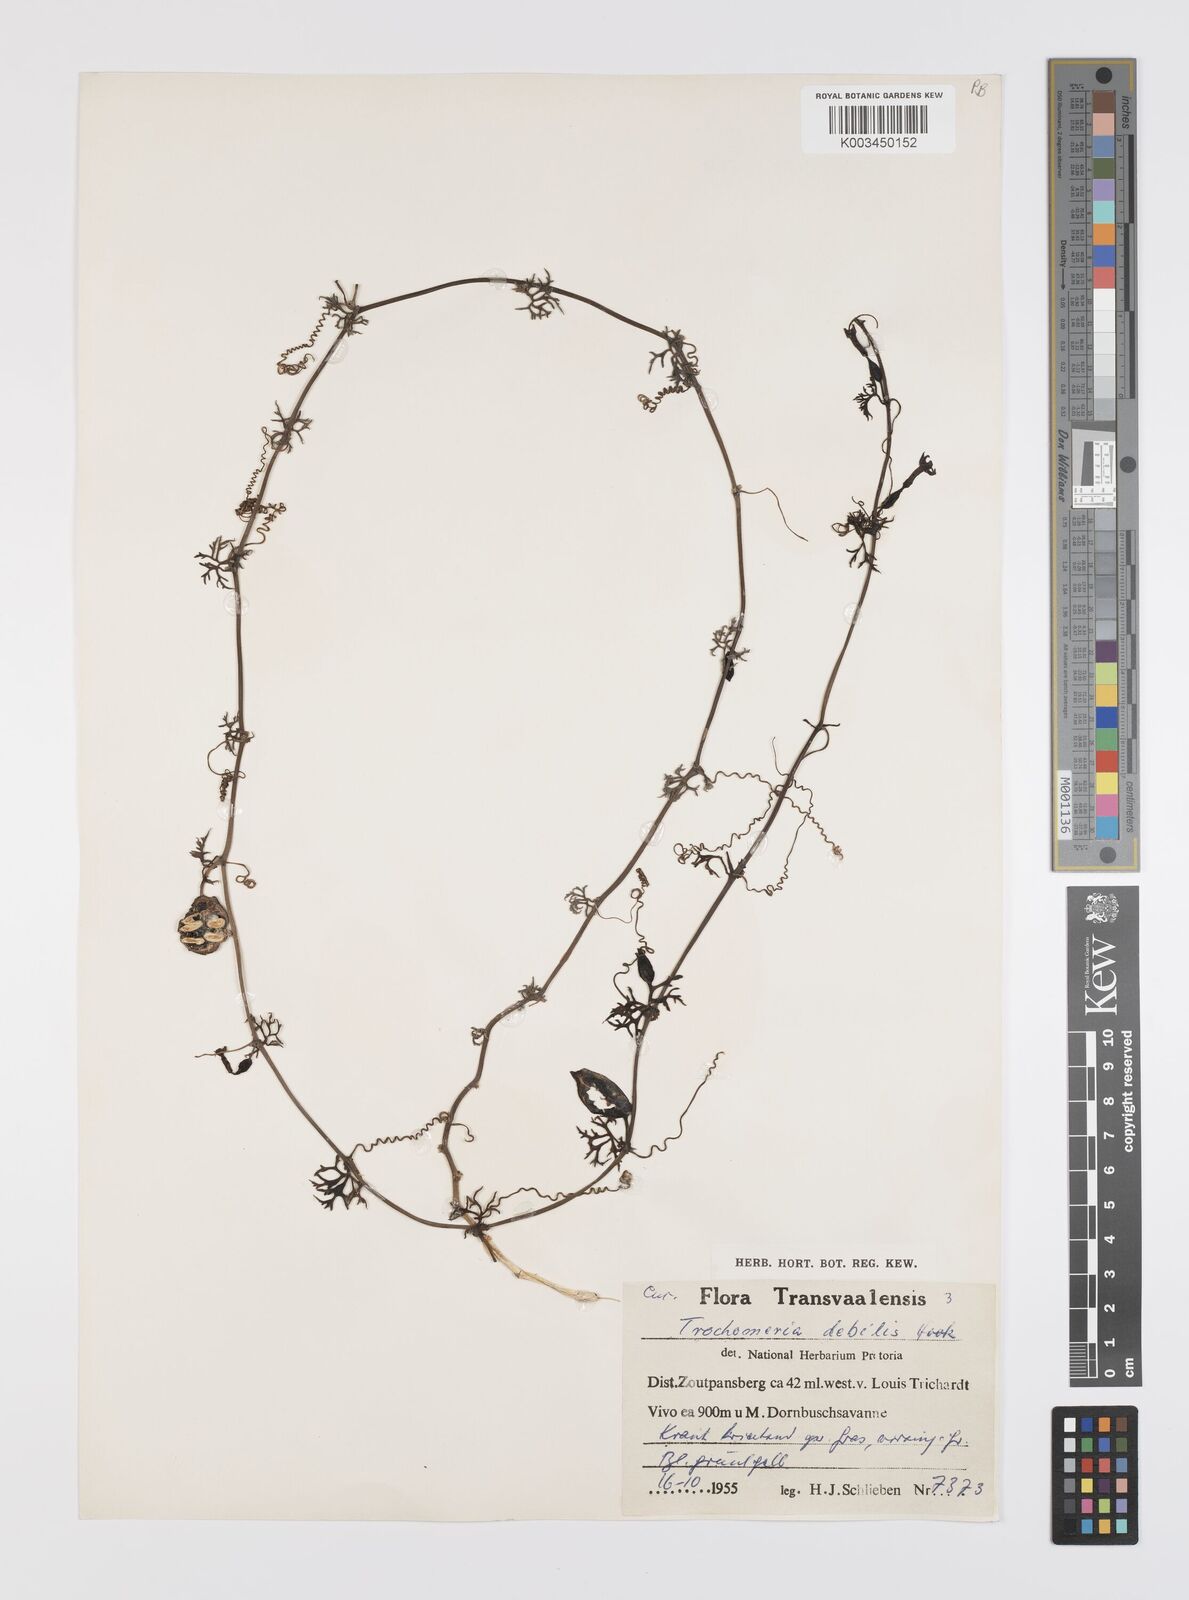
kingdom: Plantae
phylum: Tracheophyta
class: Magnoliopsida
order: Cucurbitales
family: Cucurbitaceae
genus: Trochomeria
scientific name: Trochomeria debilis
